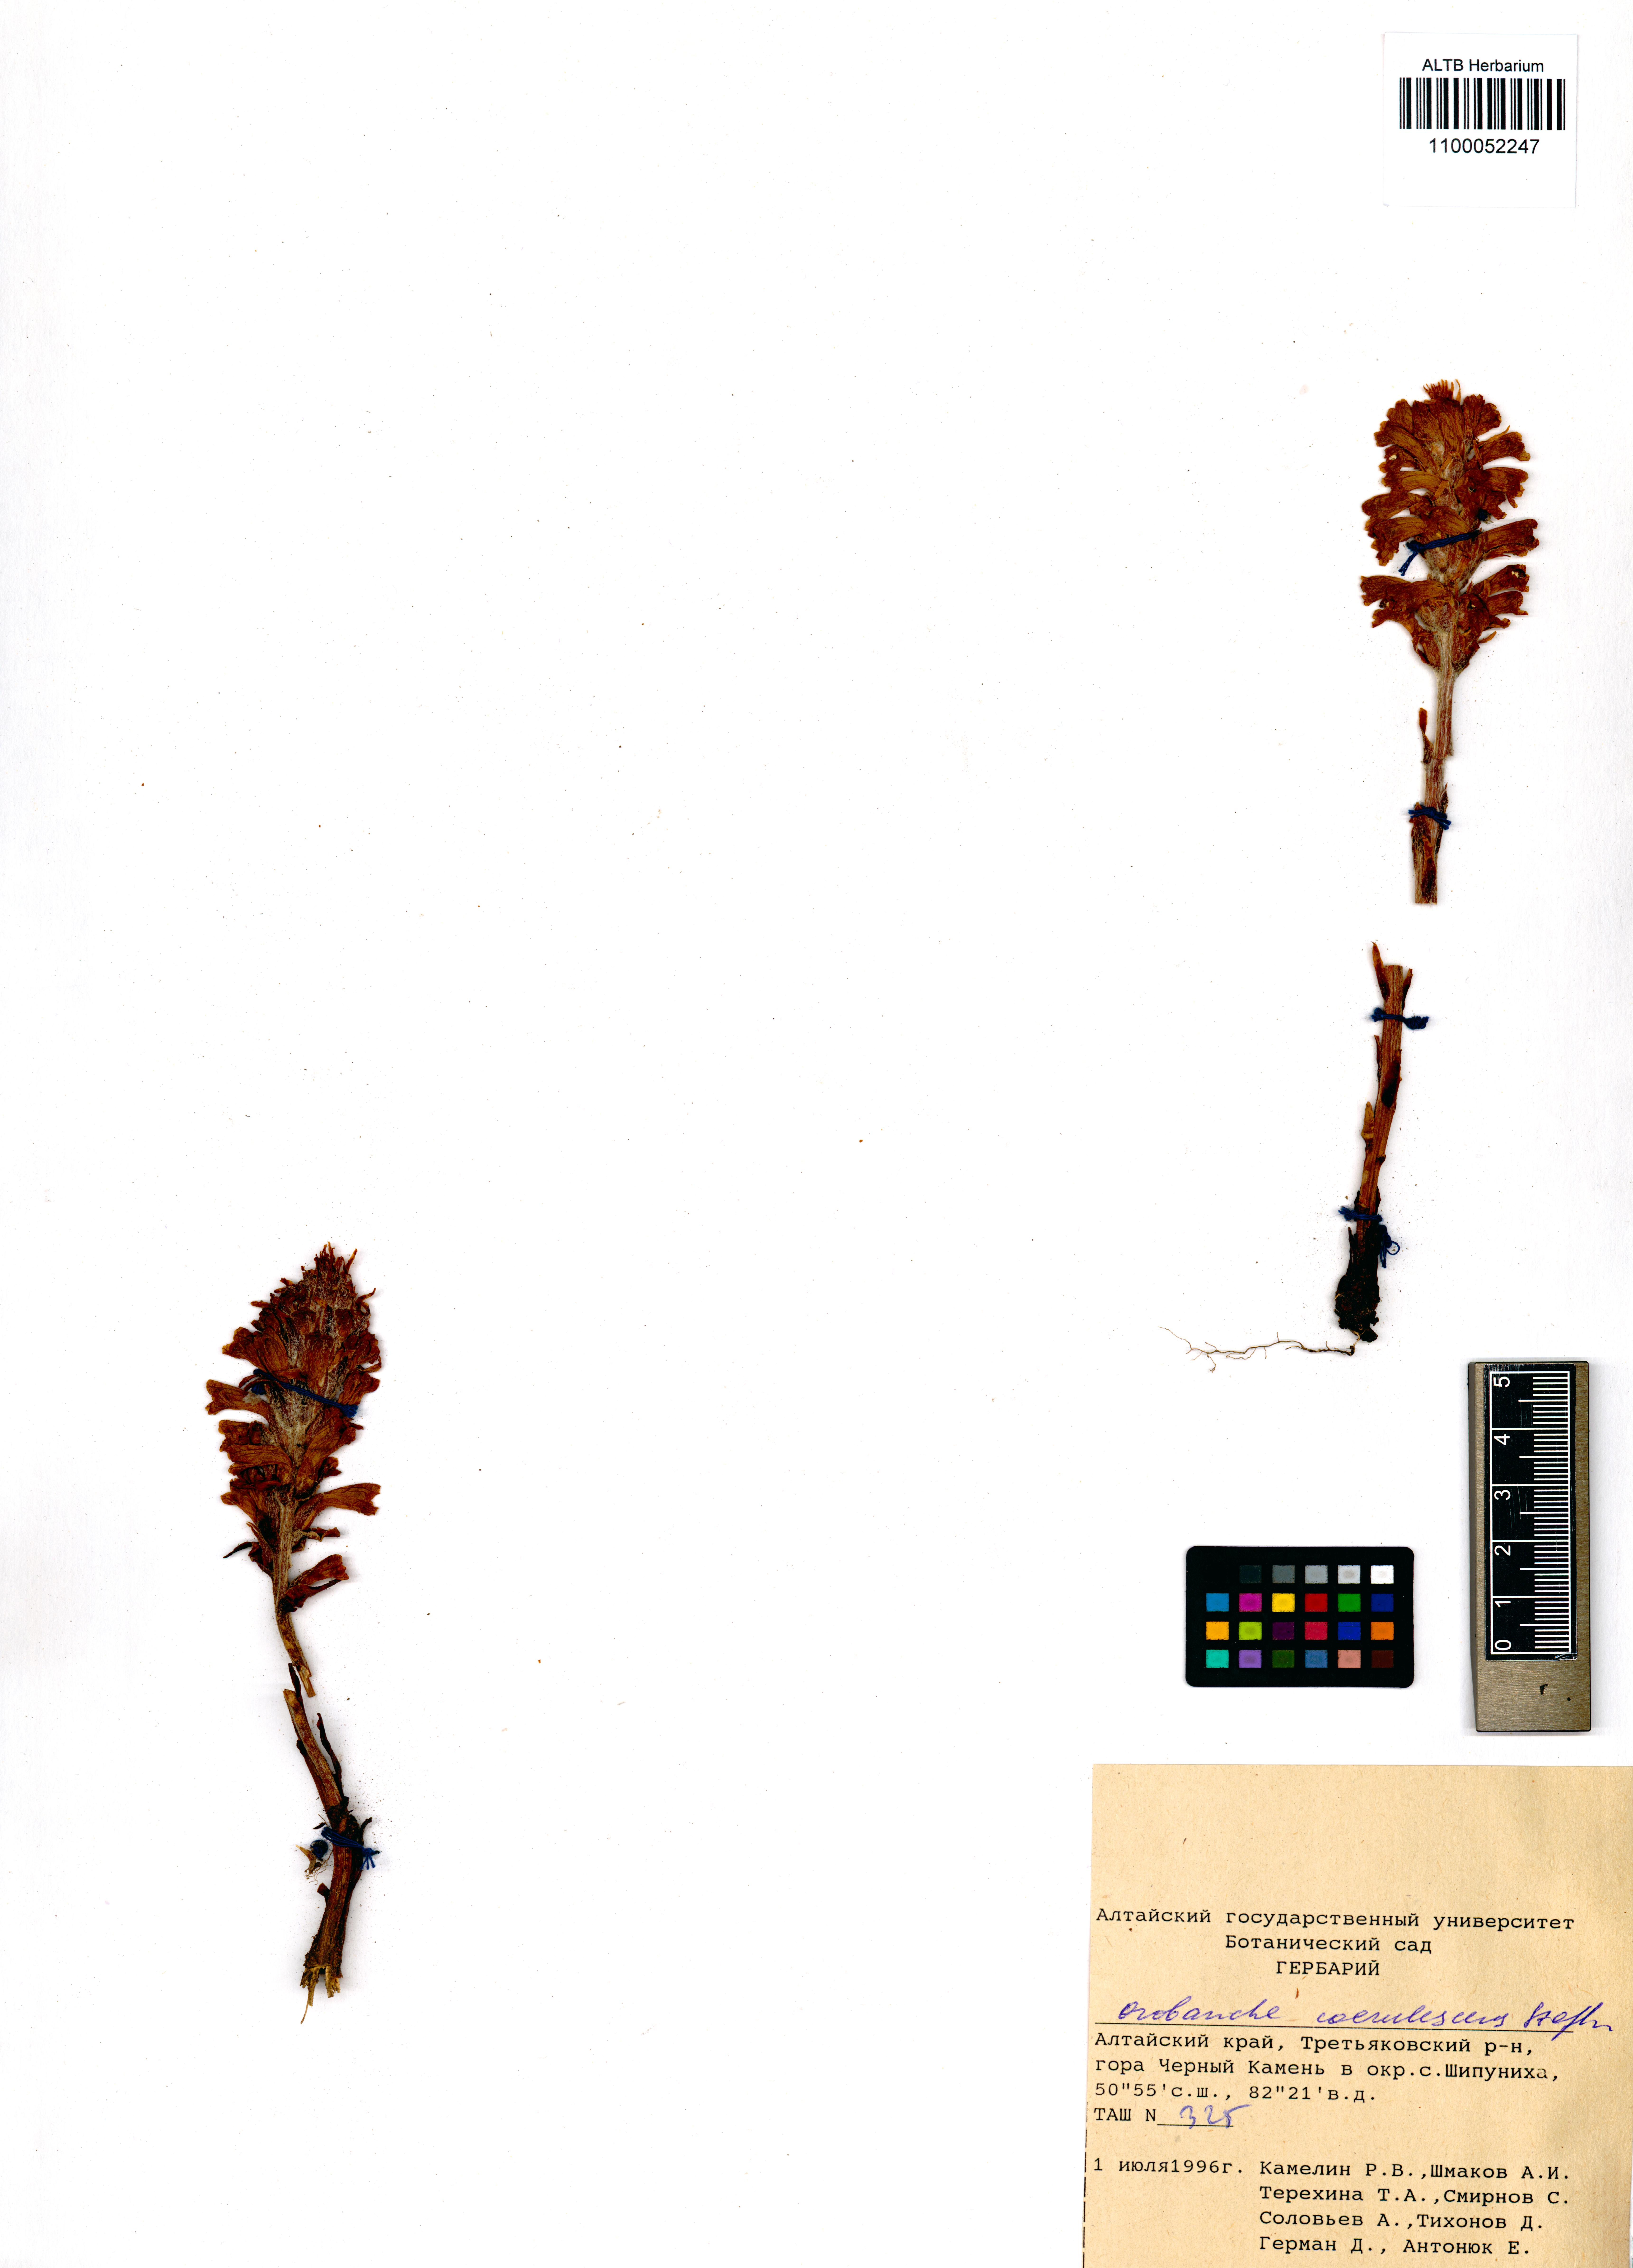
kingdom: Plantae
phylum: Tracheophyta
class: Magnoliopsida
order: Lamiales
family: Orobanchaceae
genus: Orobanche
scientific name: Orobanche coerulescens
